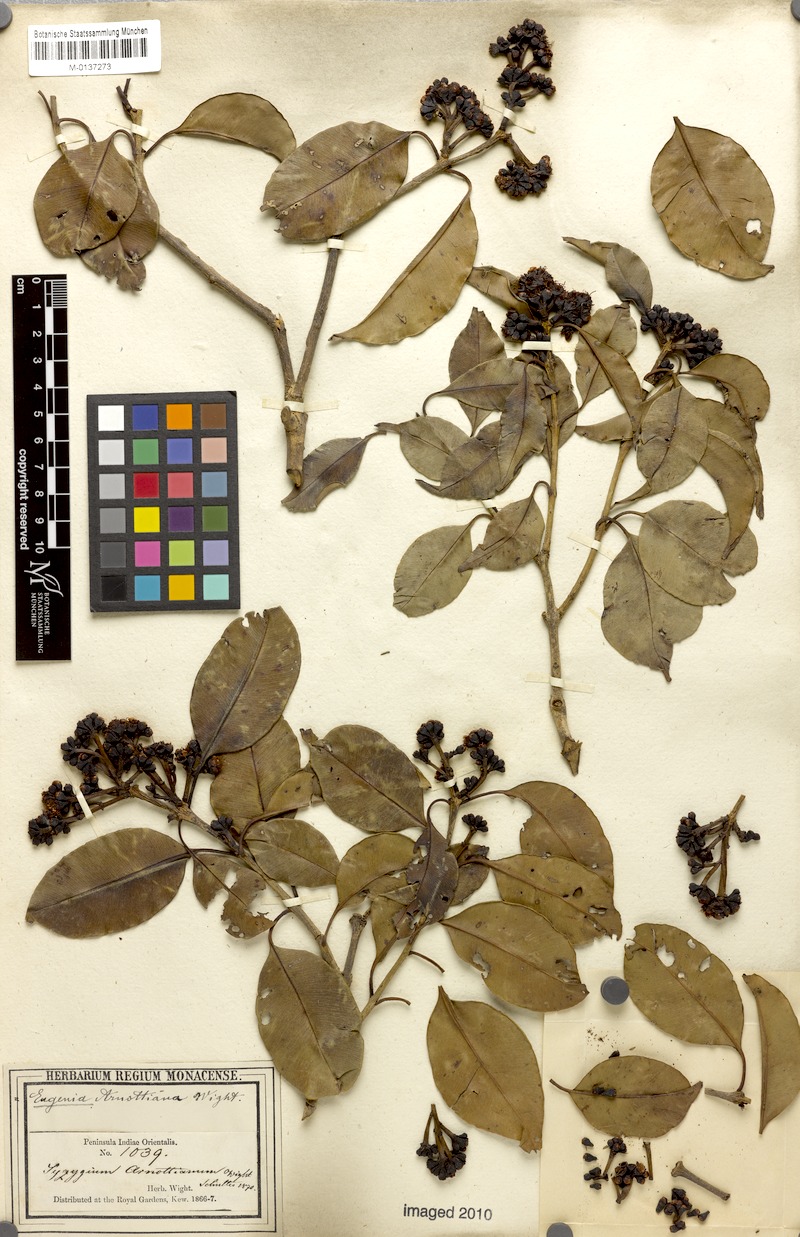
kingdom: Plantae
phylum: Tracheophyta
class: Magnoliopsida
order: Myrtales
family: Myrtaceae
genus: Syzygium
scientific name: Syzygium densiflorum
